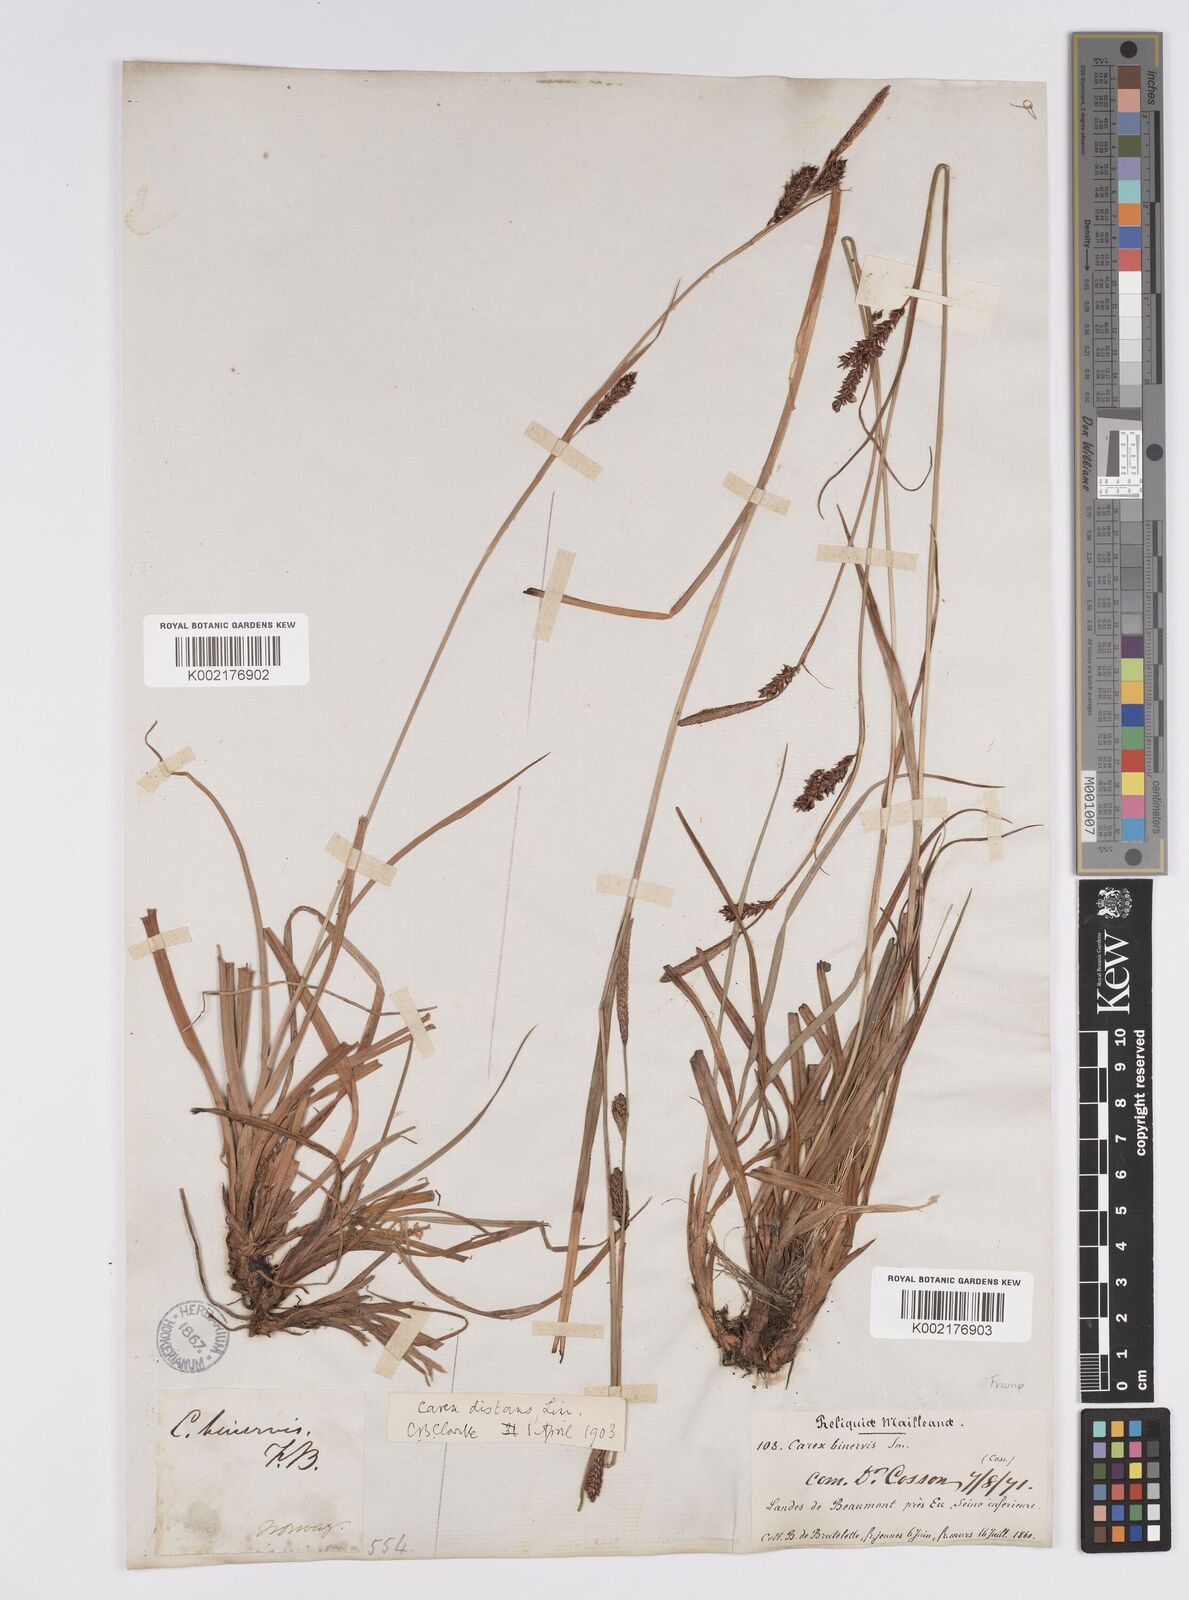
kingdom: Plantae
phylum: Tracheophyta
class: Liliopsida
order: Poales
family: Cyperaceae
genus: Carex
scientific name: Carex binervis
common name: Green-ribbed sedge
